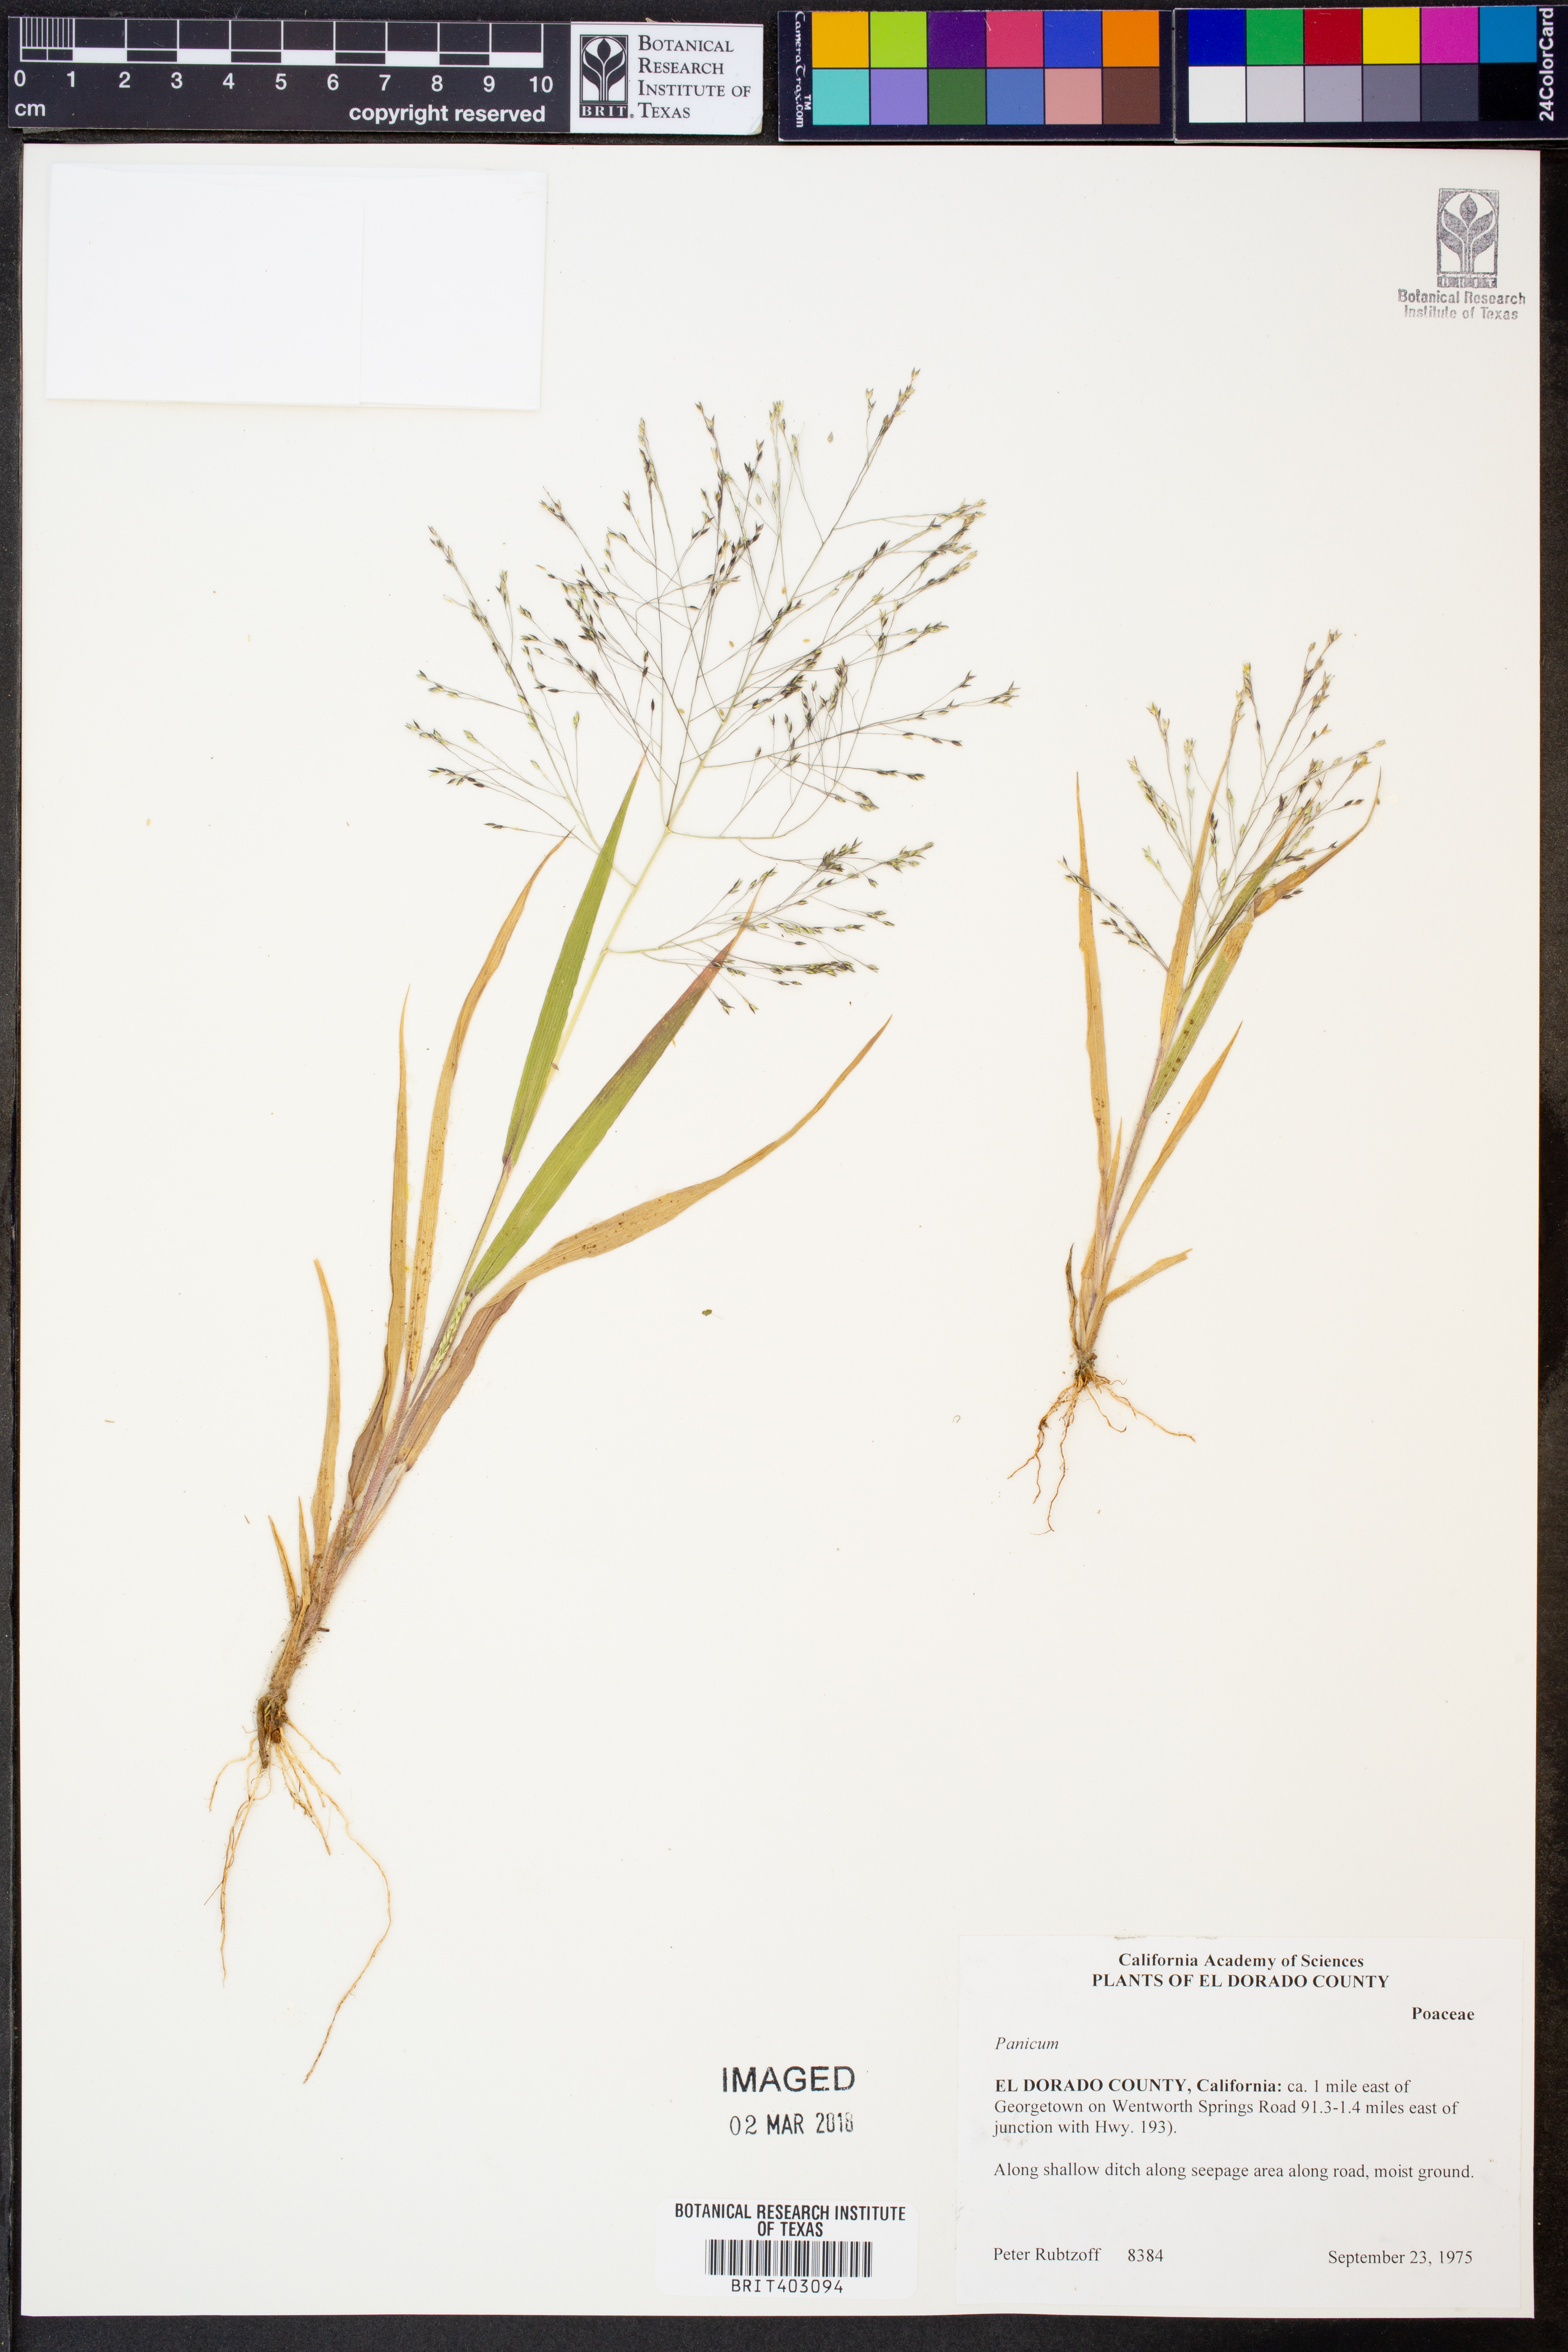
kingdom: Plantae
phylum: Tracheophyta
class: Liliopsida
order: Poales
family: Poaceae
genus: Panicum
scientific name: Panicum
